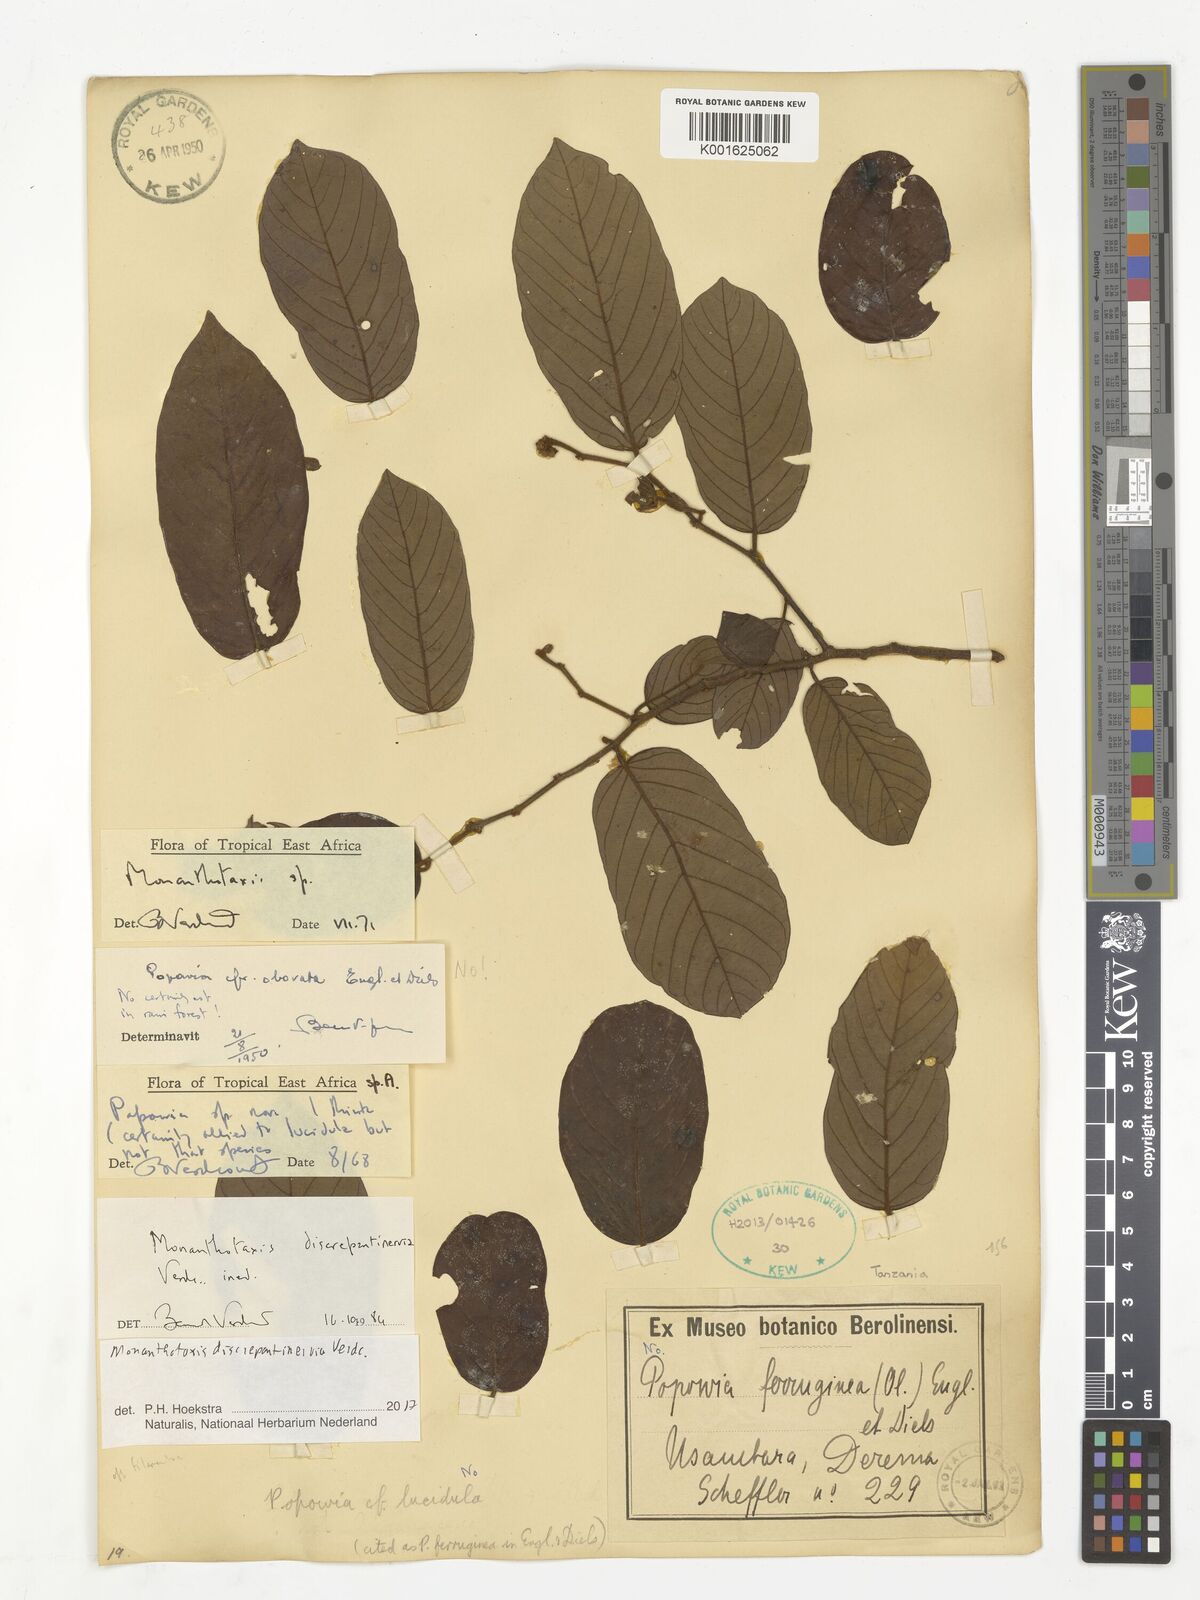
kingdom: Plantae
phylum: Tracheophyta
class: Magnoliopsida
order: Magnoliales
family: Annonaceae
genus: Monanthotaxis
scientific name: Monanthotaxis discrepantinervia
